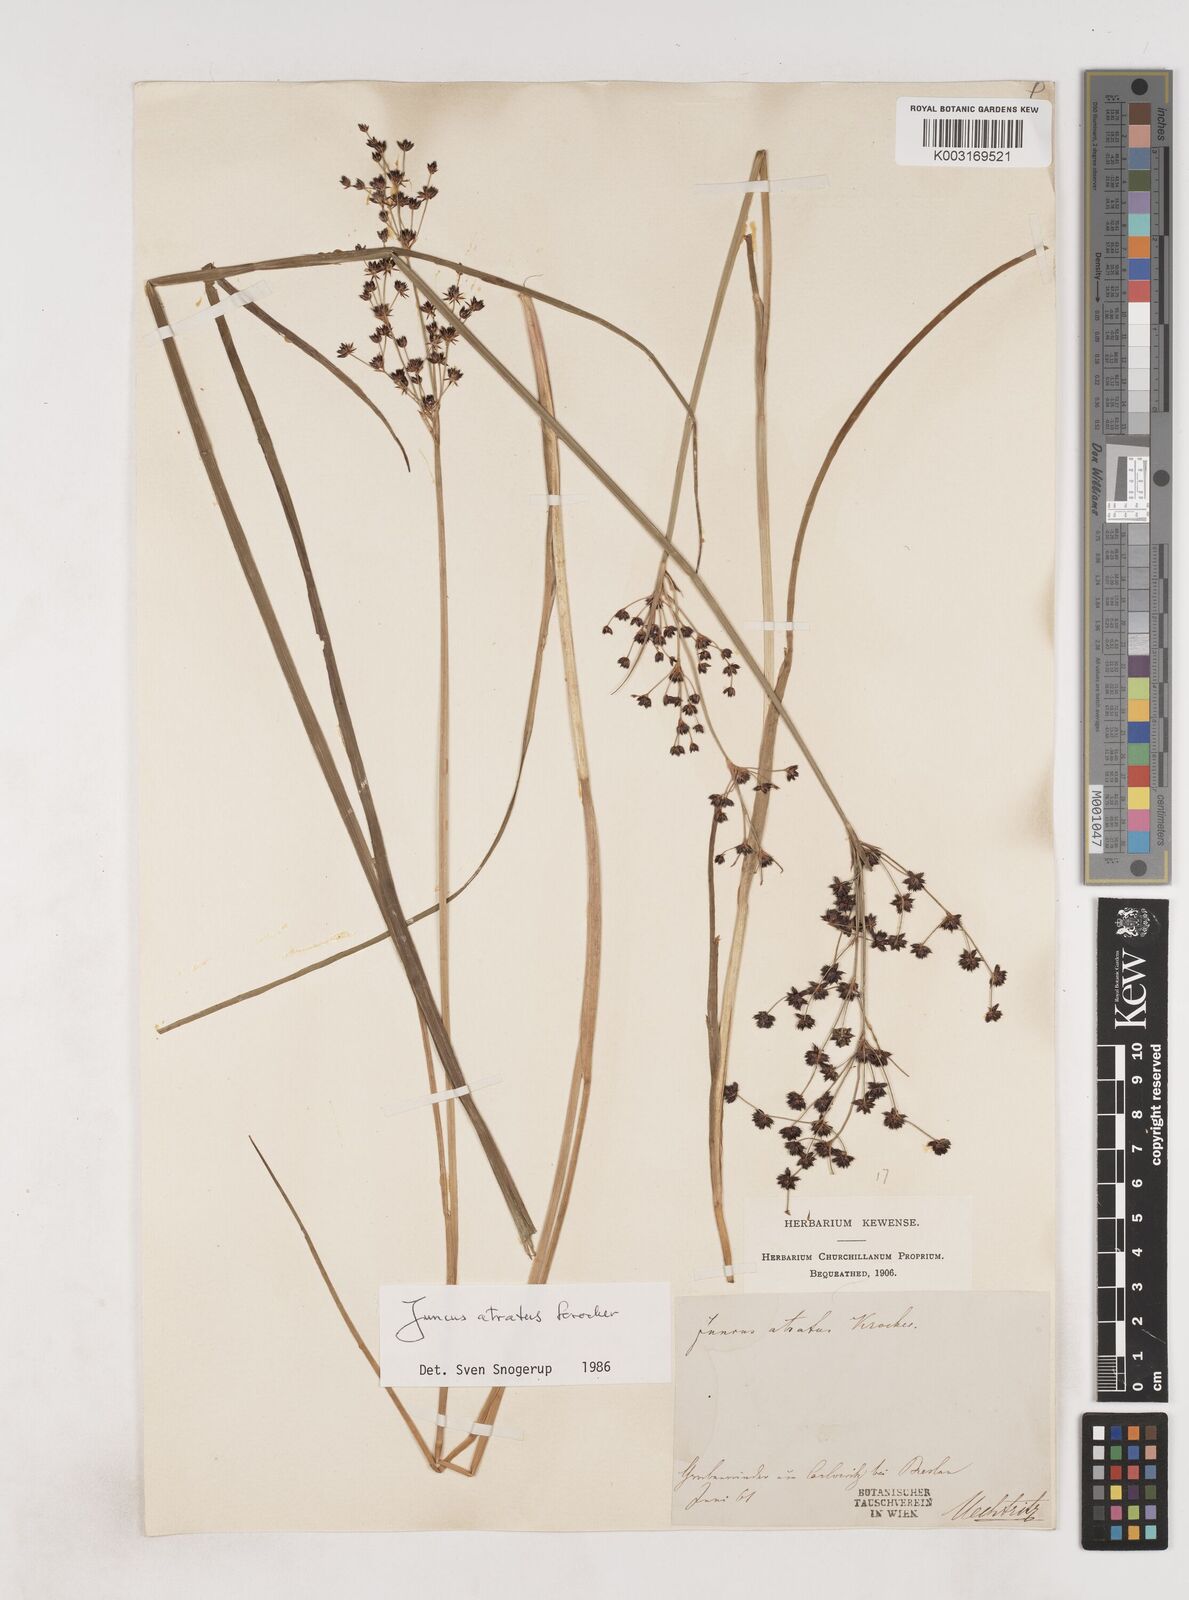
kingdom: Plantae
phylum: Tracheophyta
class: Liliopsida
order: Poales
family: Juncaceae
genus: Juncus
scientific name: Juncus atratus
